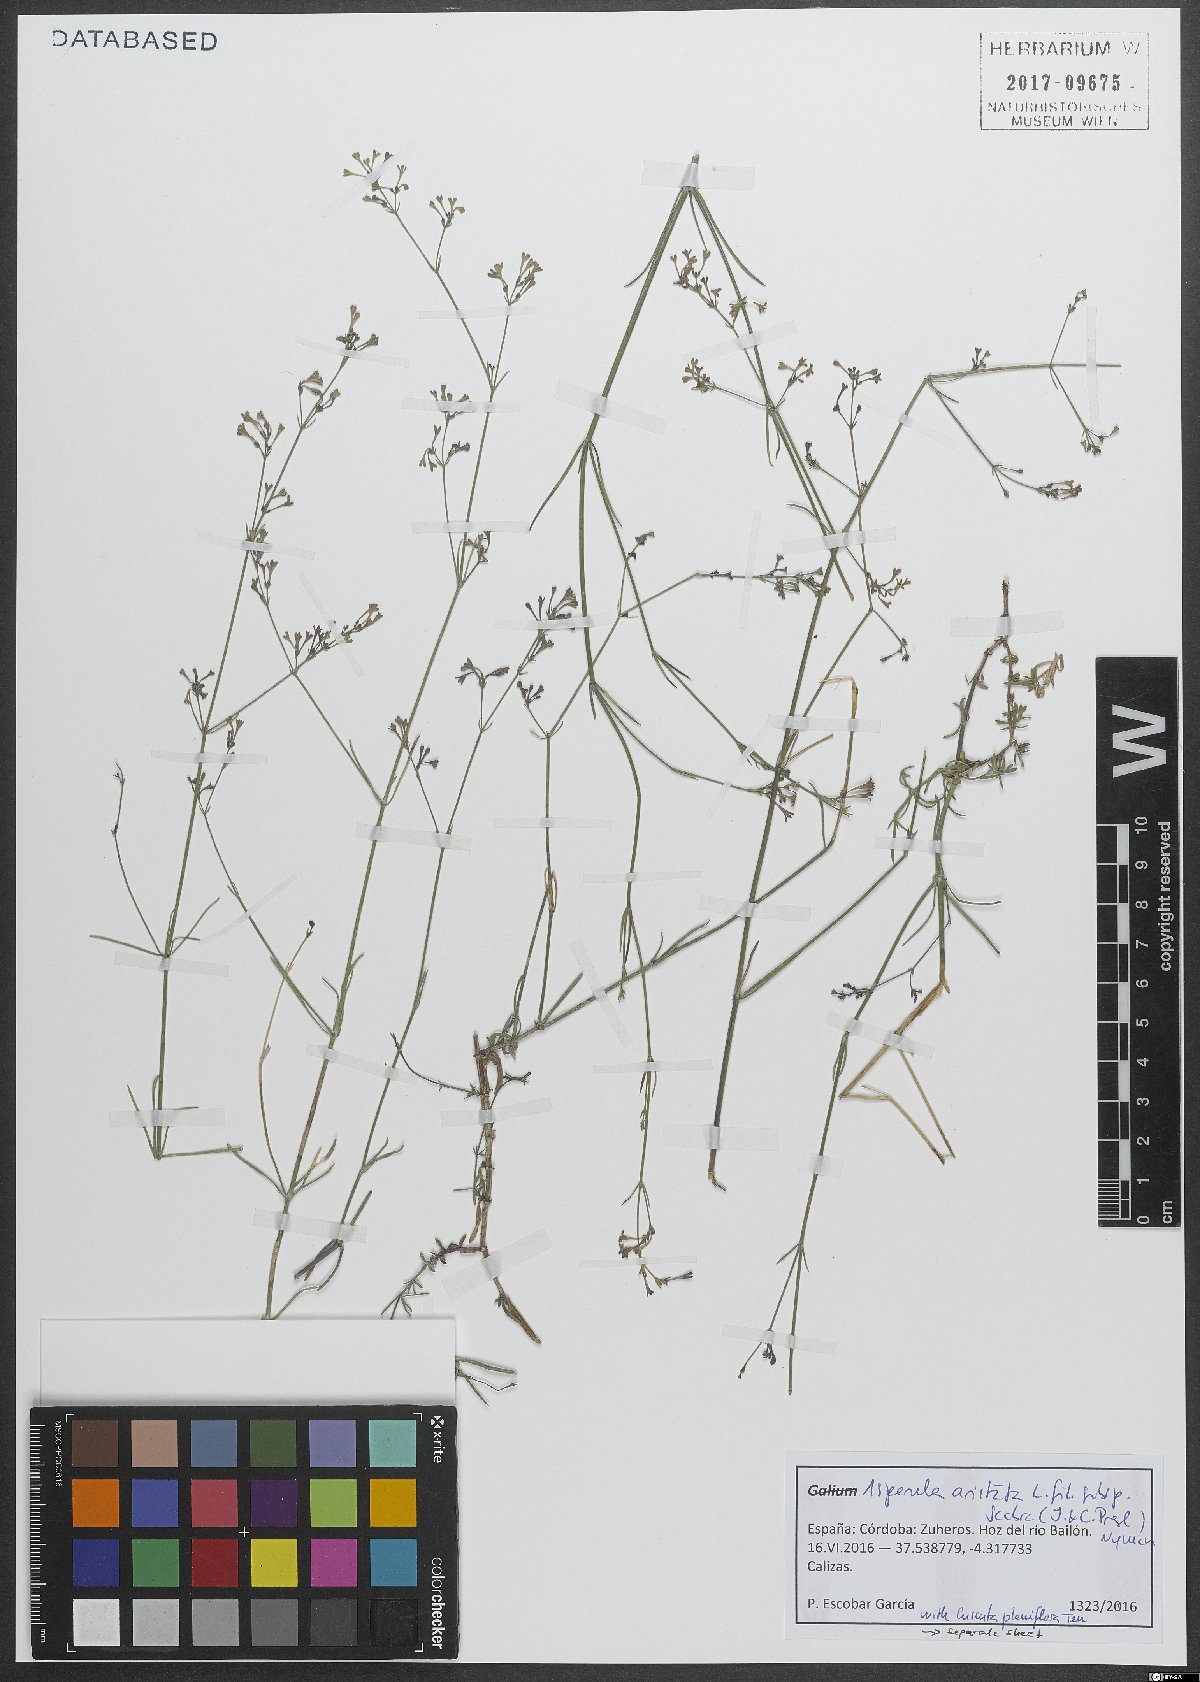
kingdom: Plantae
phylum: Tracheophyta
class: Magnoliopsida
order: Gentianales
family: Rubiaceae
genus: Cynanchica
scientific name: Cynanchica aristata
